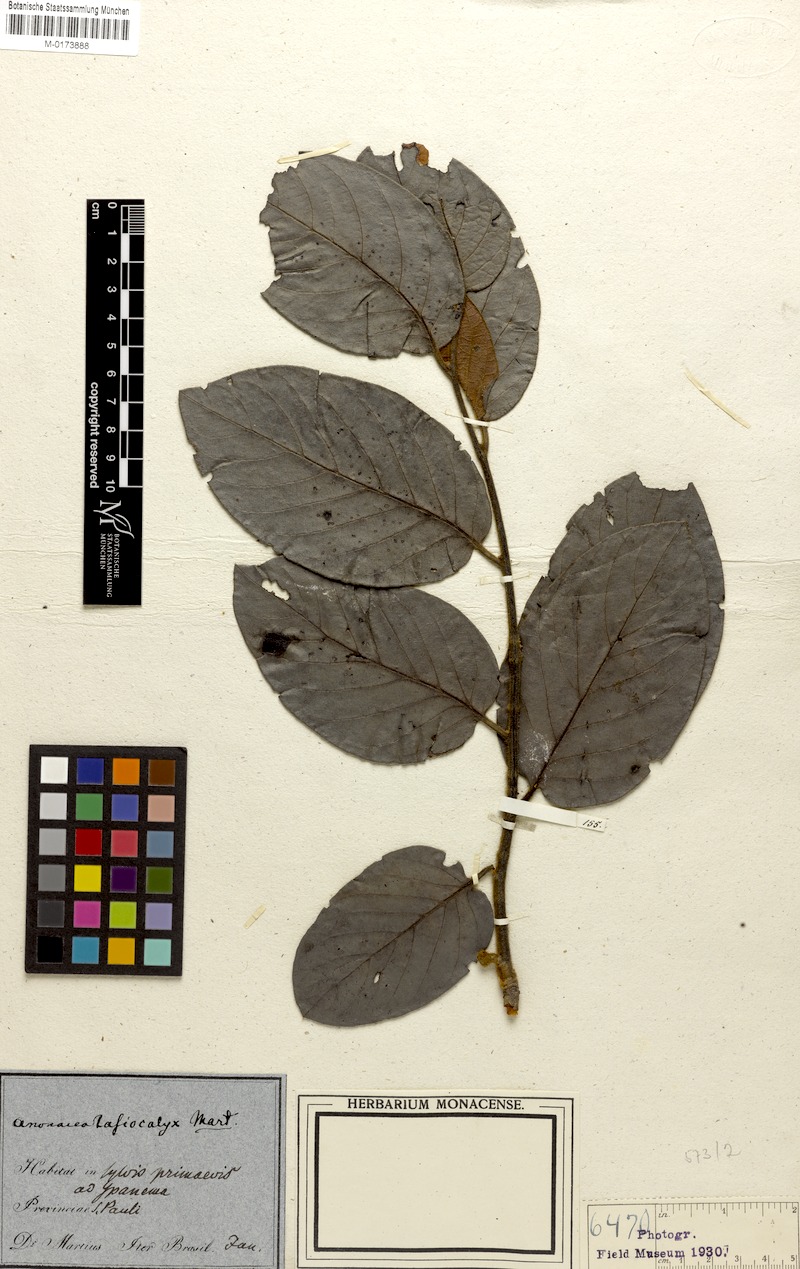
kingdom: Plantae
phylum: Tracheophyta
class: Magnoliopsida
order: Ericales
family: Ebenaceae
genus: Diospyros
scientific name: Diospyros lasiocalyx
